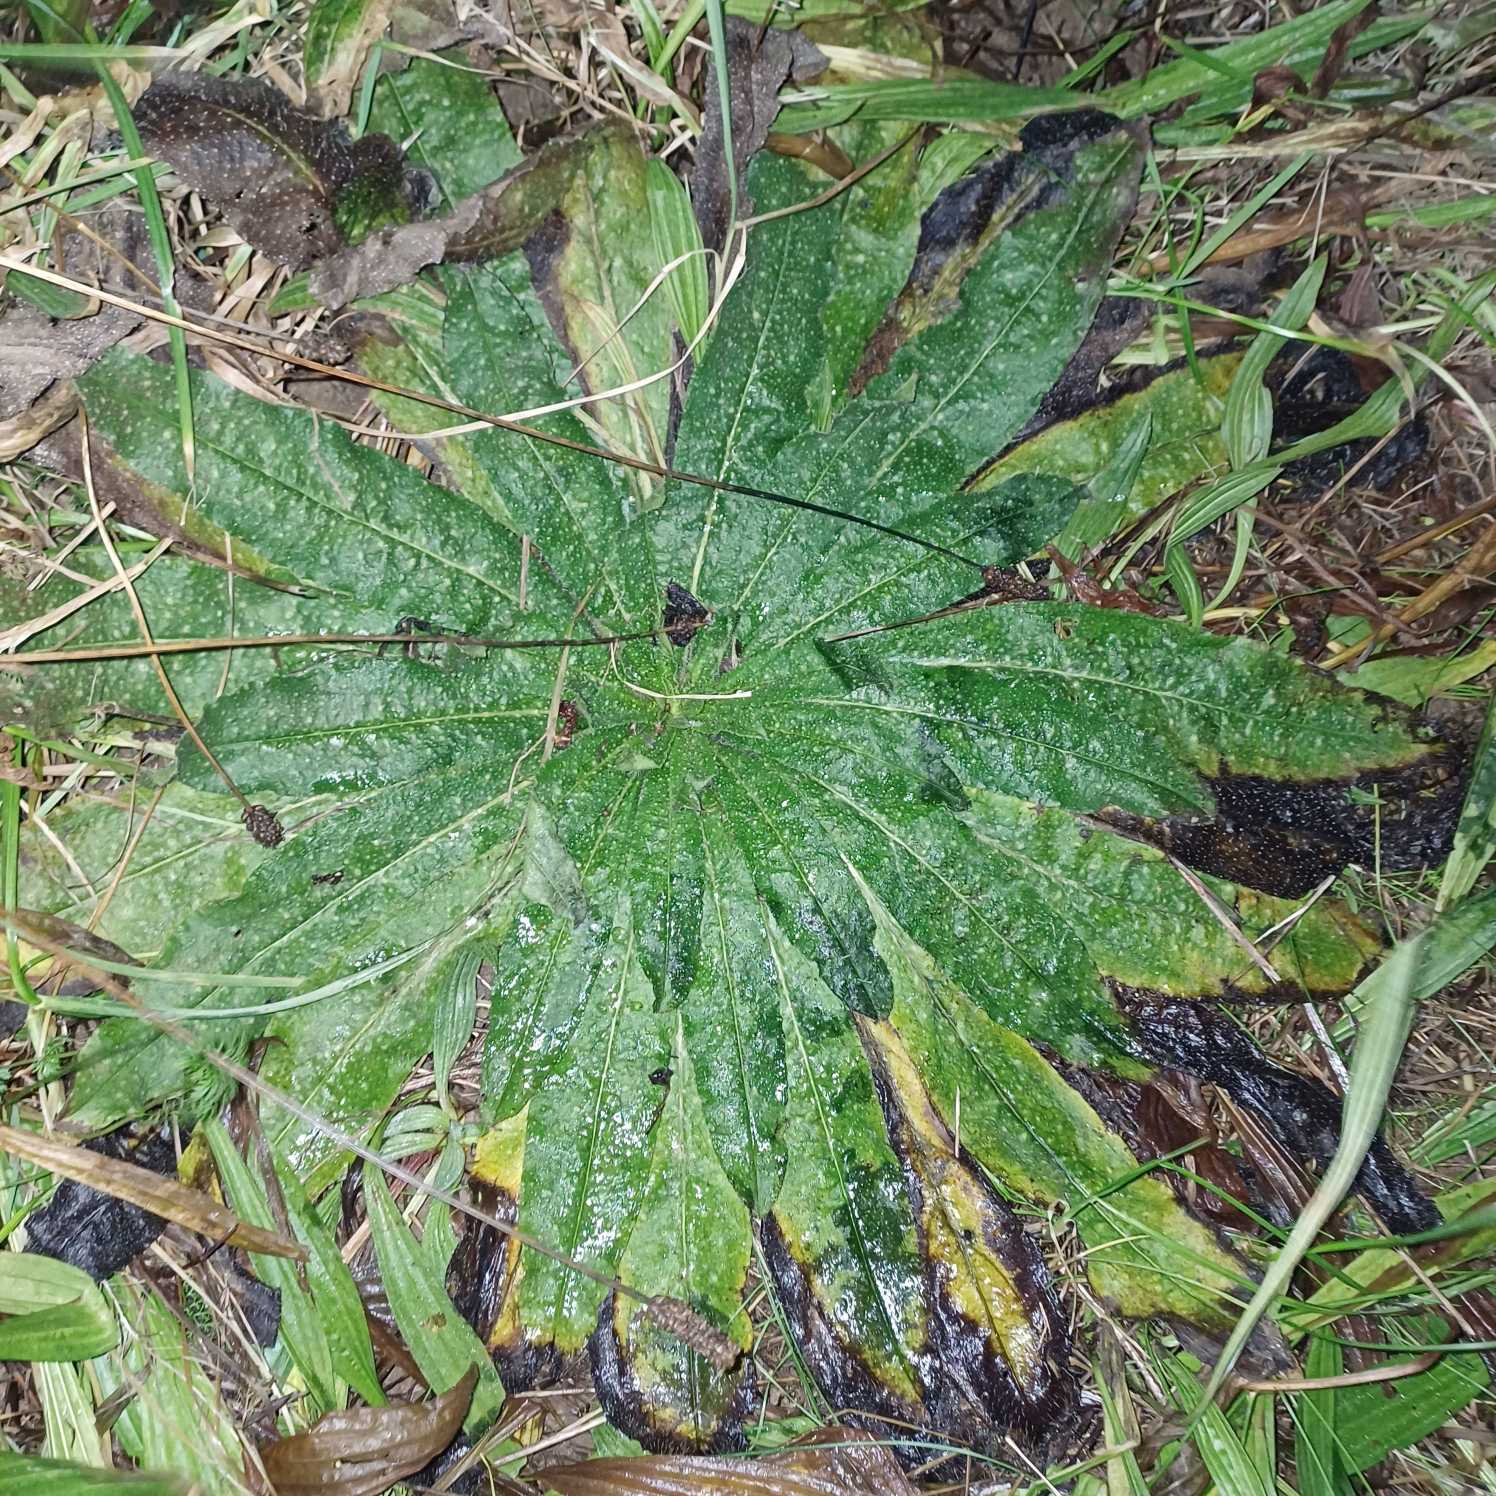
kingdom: Plantae
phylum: Tracheophyta
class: Magnoliopsida
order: Boraginales
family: Boraginaceae
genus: Echium
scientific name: Echium vulgare
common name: Slangehoved
